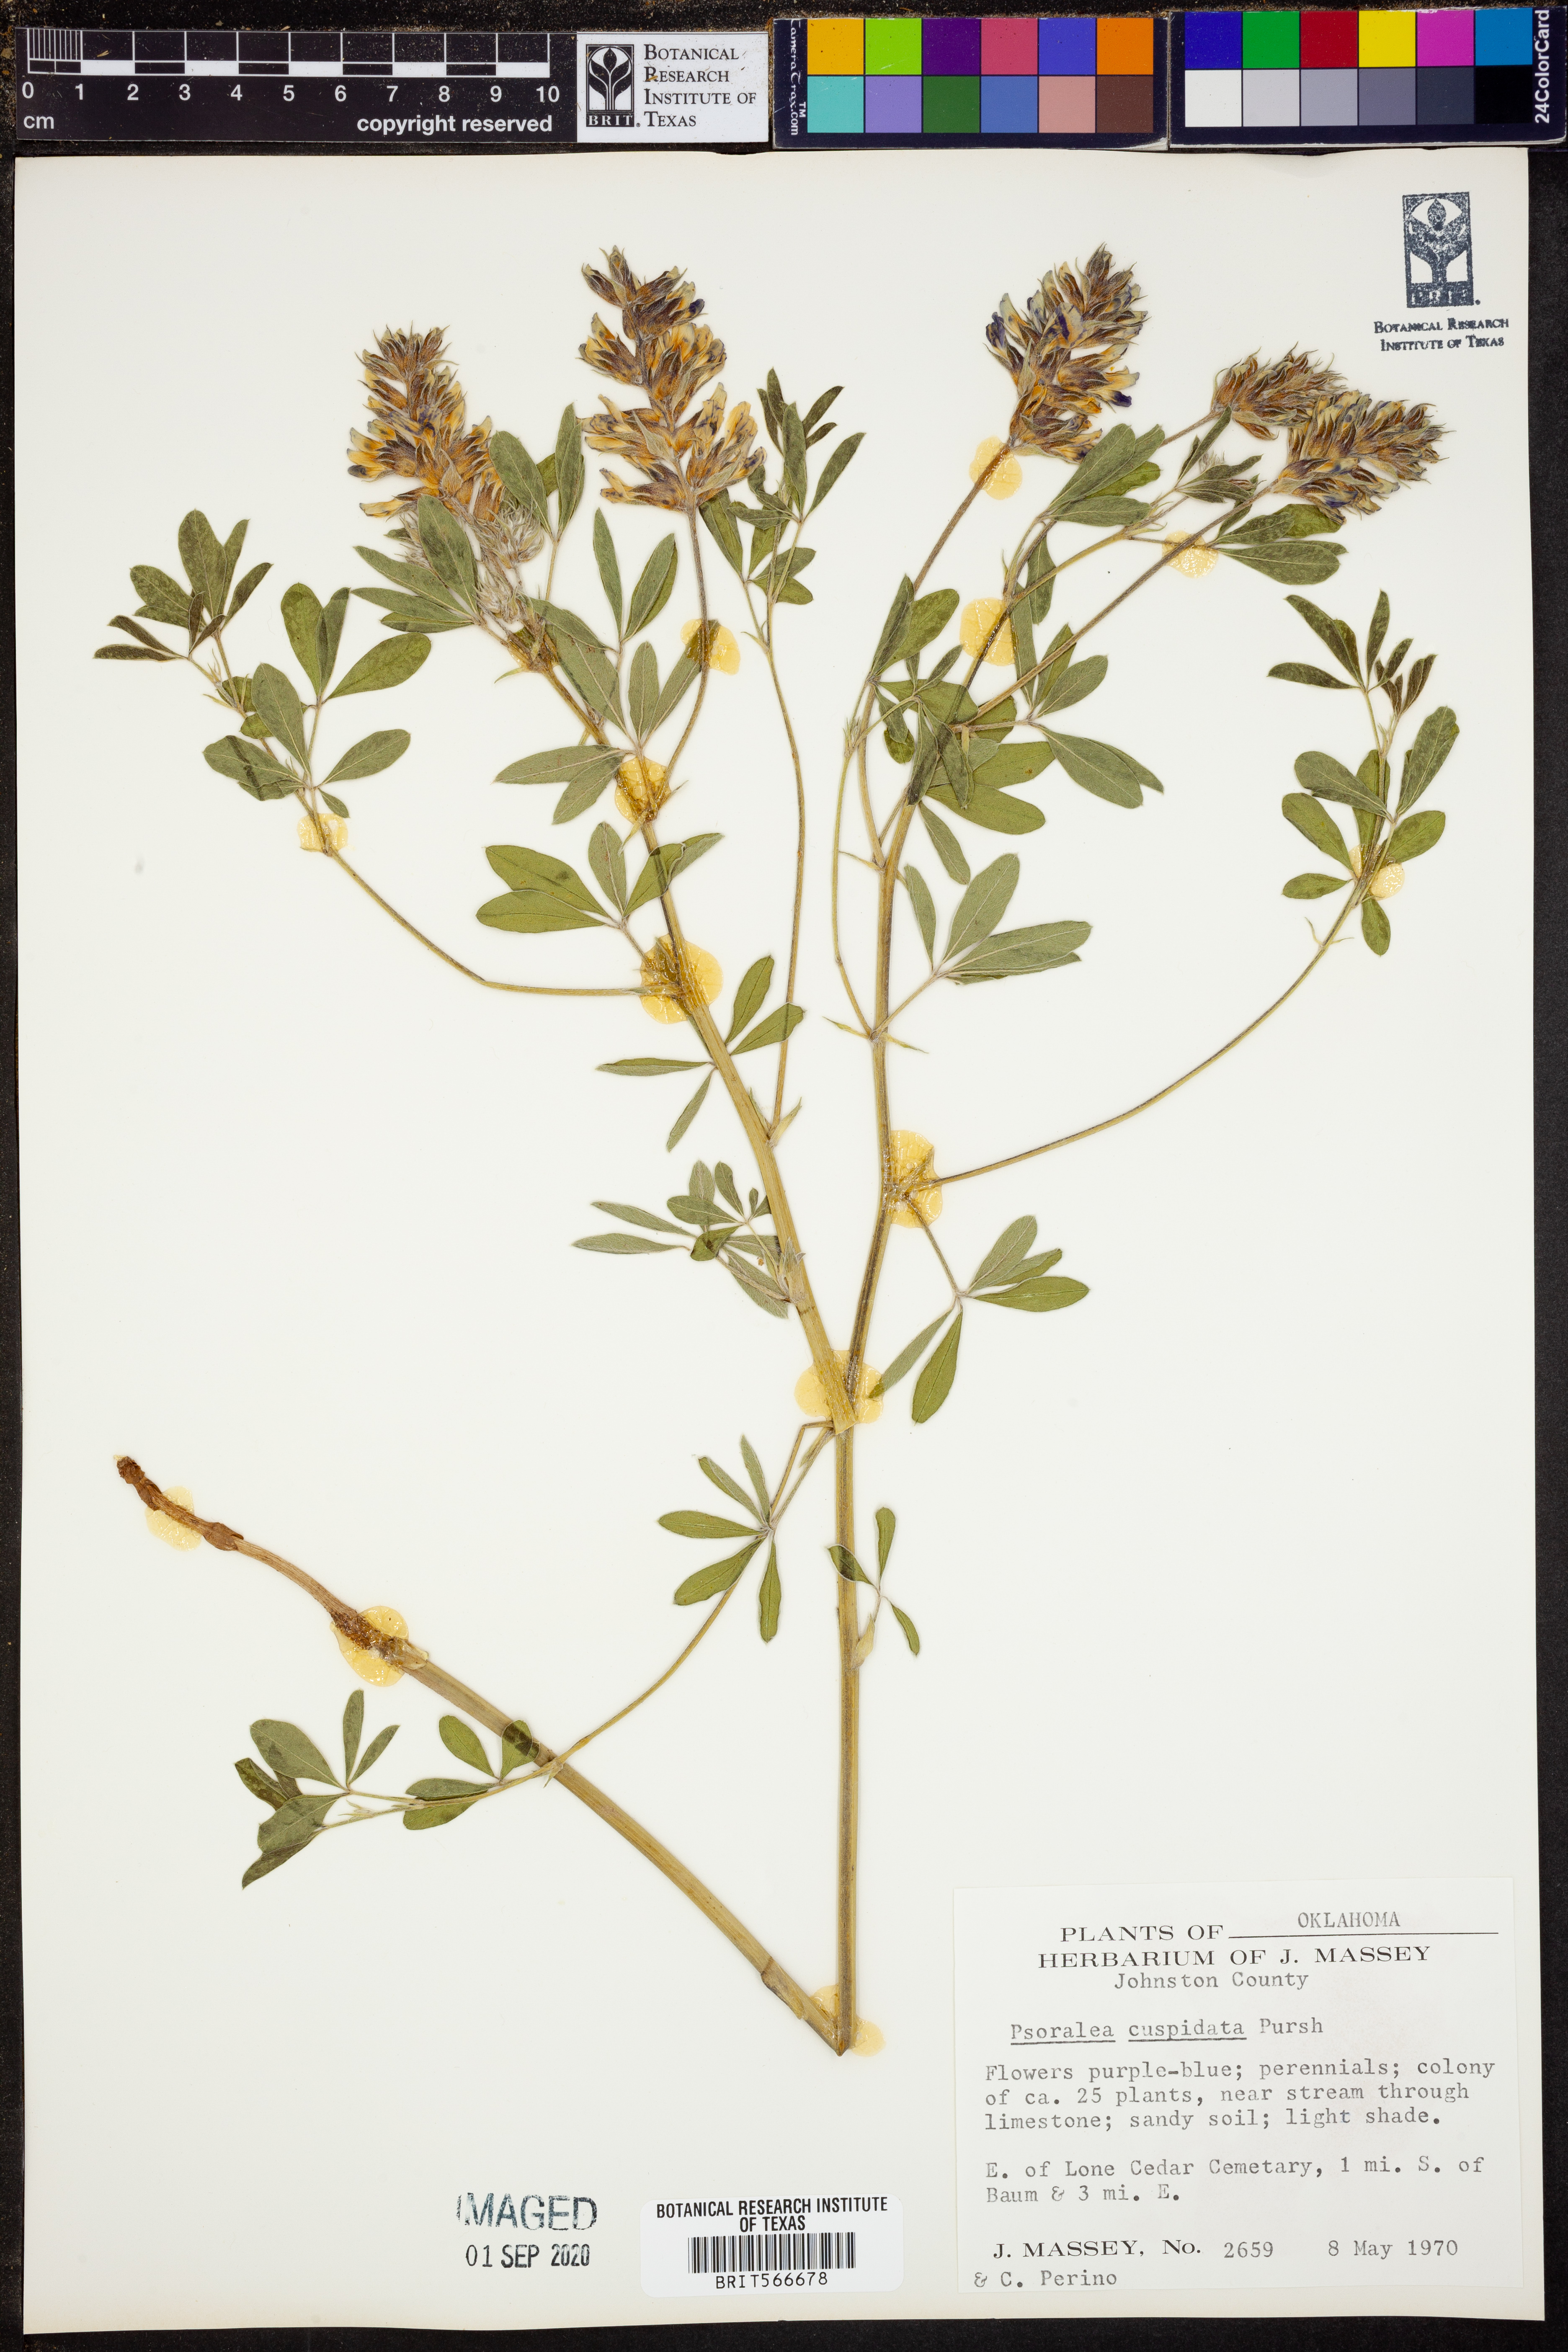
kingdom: Plantae
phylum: Tracheophyta
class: Magnoliopsida
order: Fabales
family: Fabaceae
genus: Pediomelum
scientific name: Pediomelum cuspidatum
